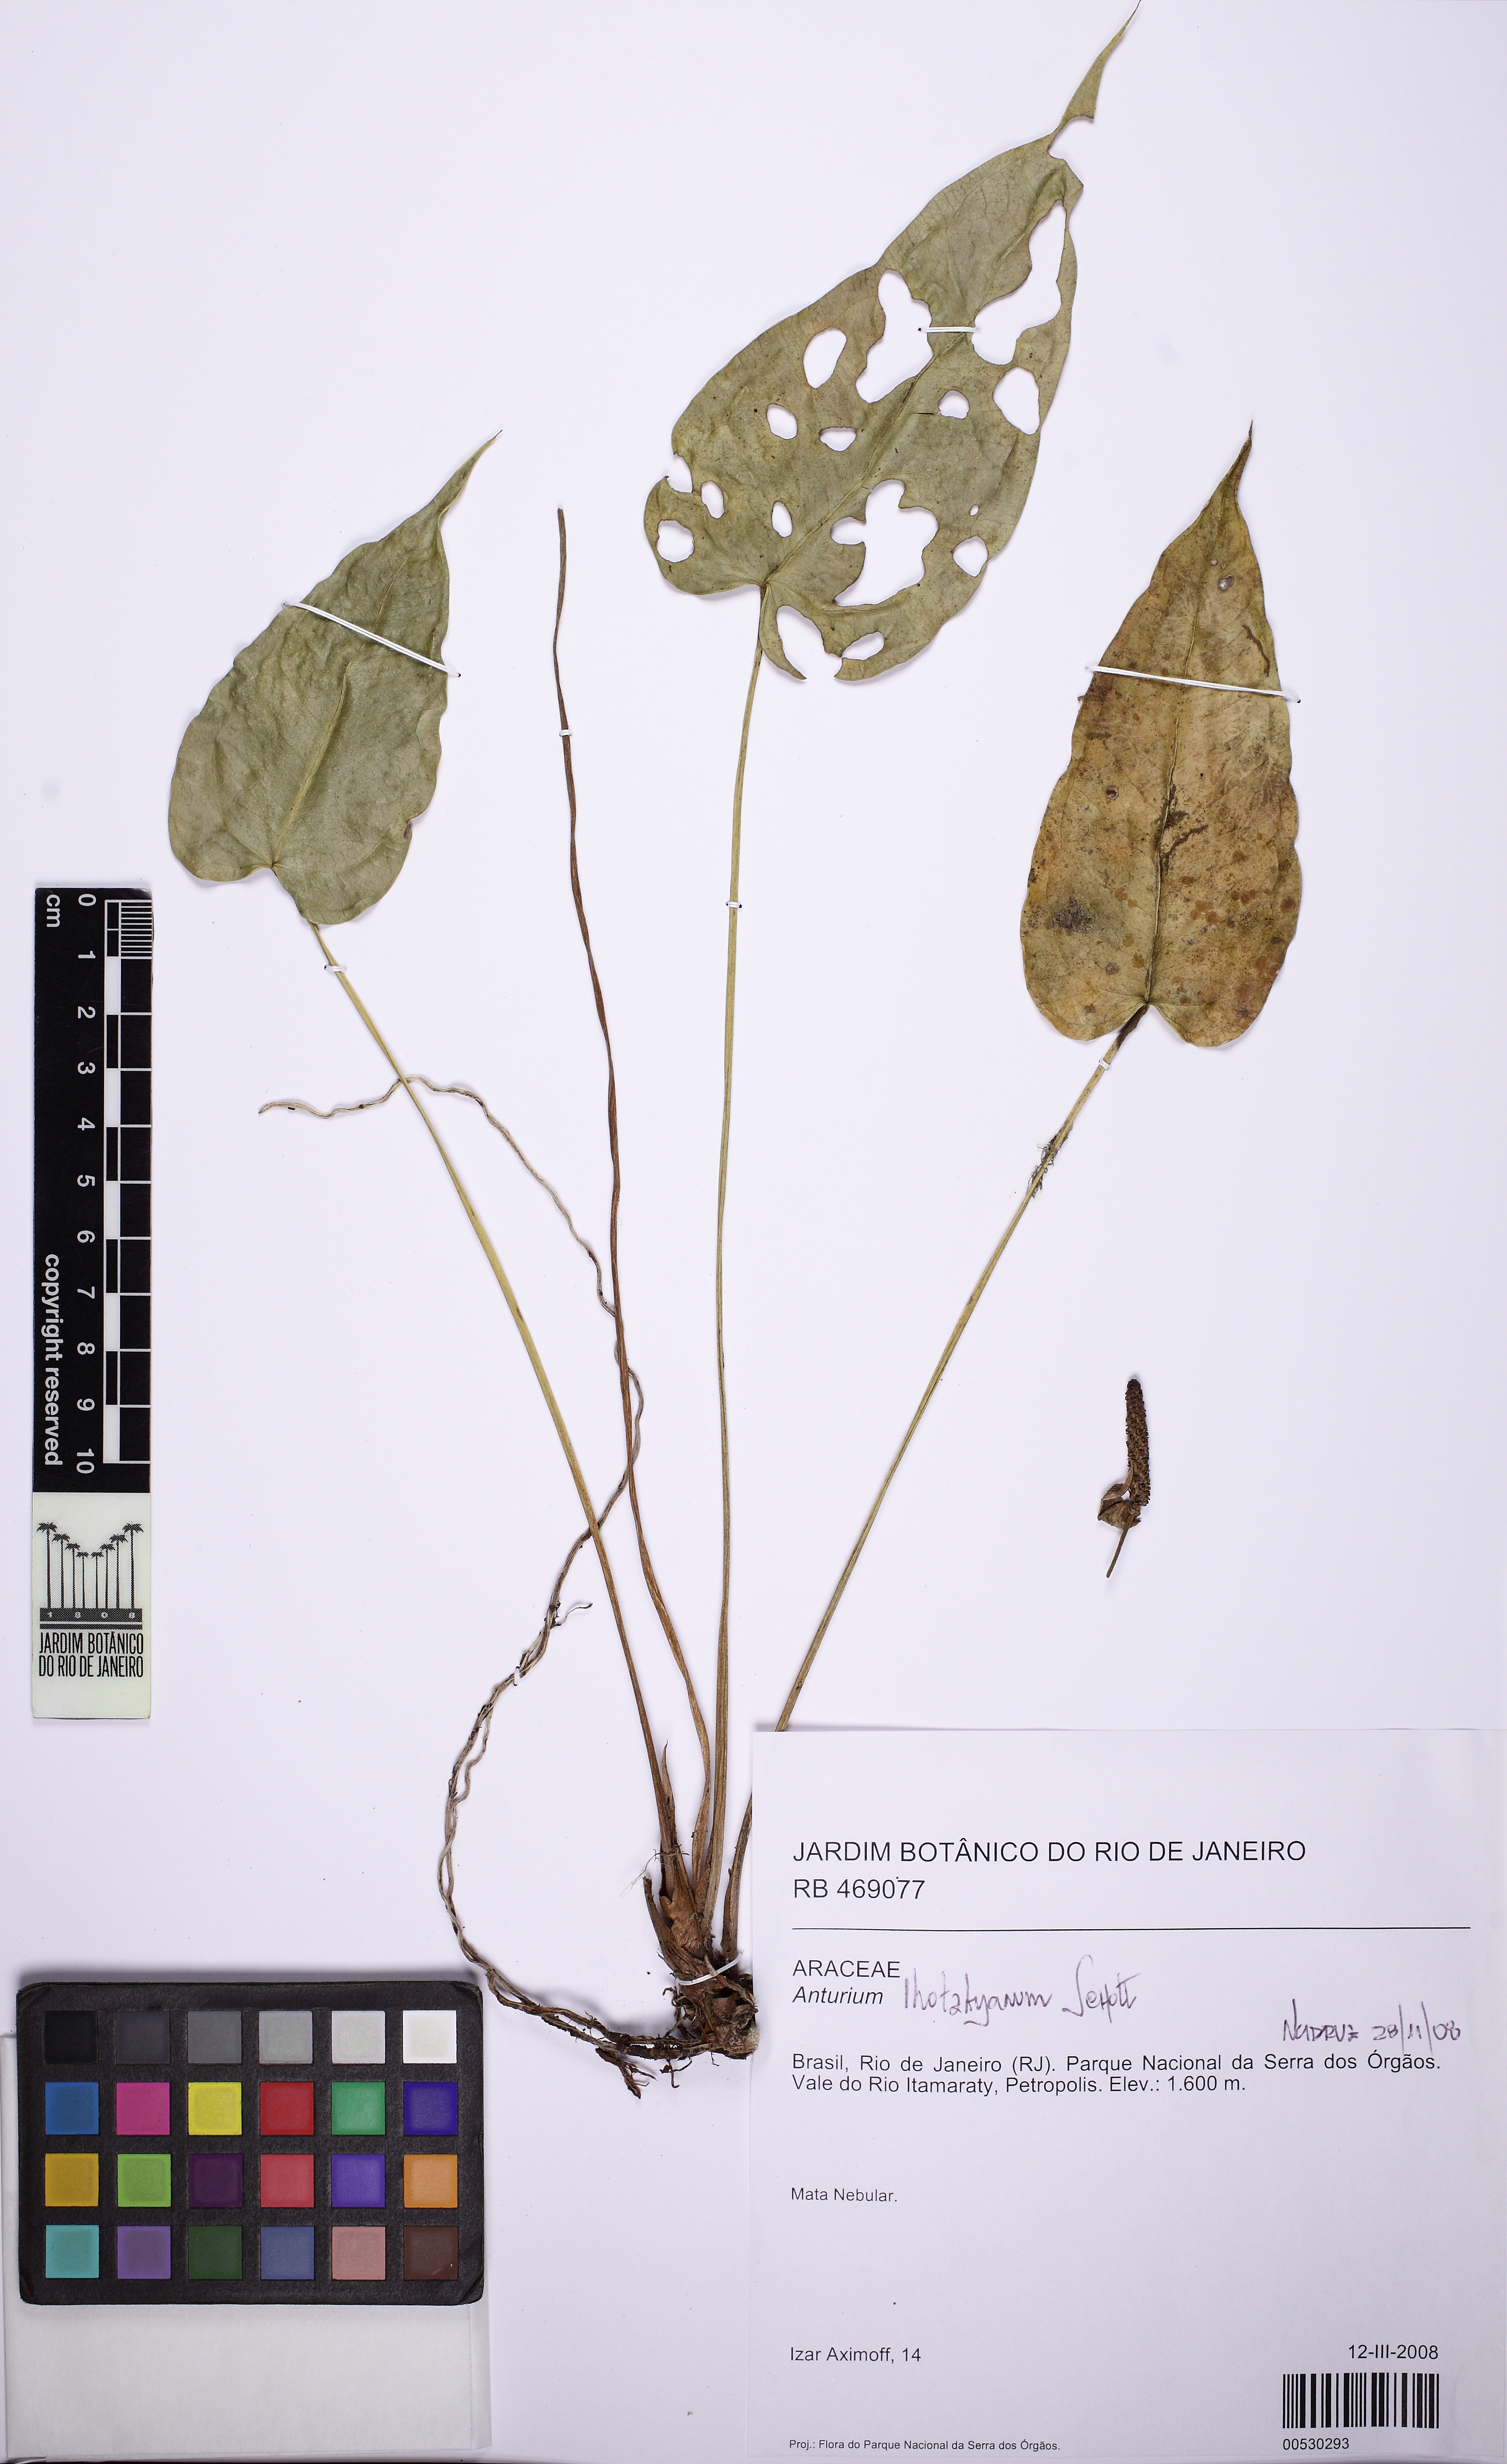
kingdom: Plantae
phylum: Tracheophyta
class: Liliopsida
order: Alismatales
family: Araceae
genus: Anthurium
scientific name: Anthurium augustinum
